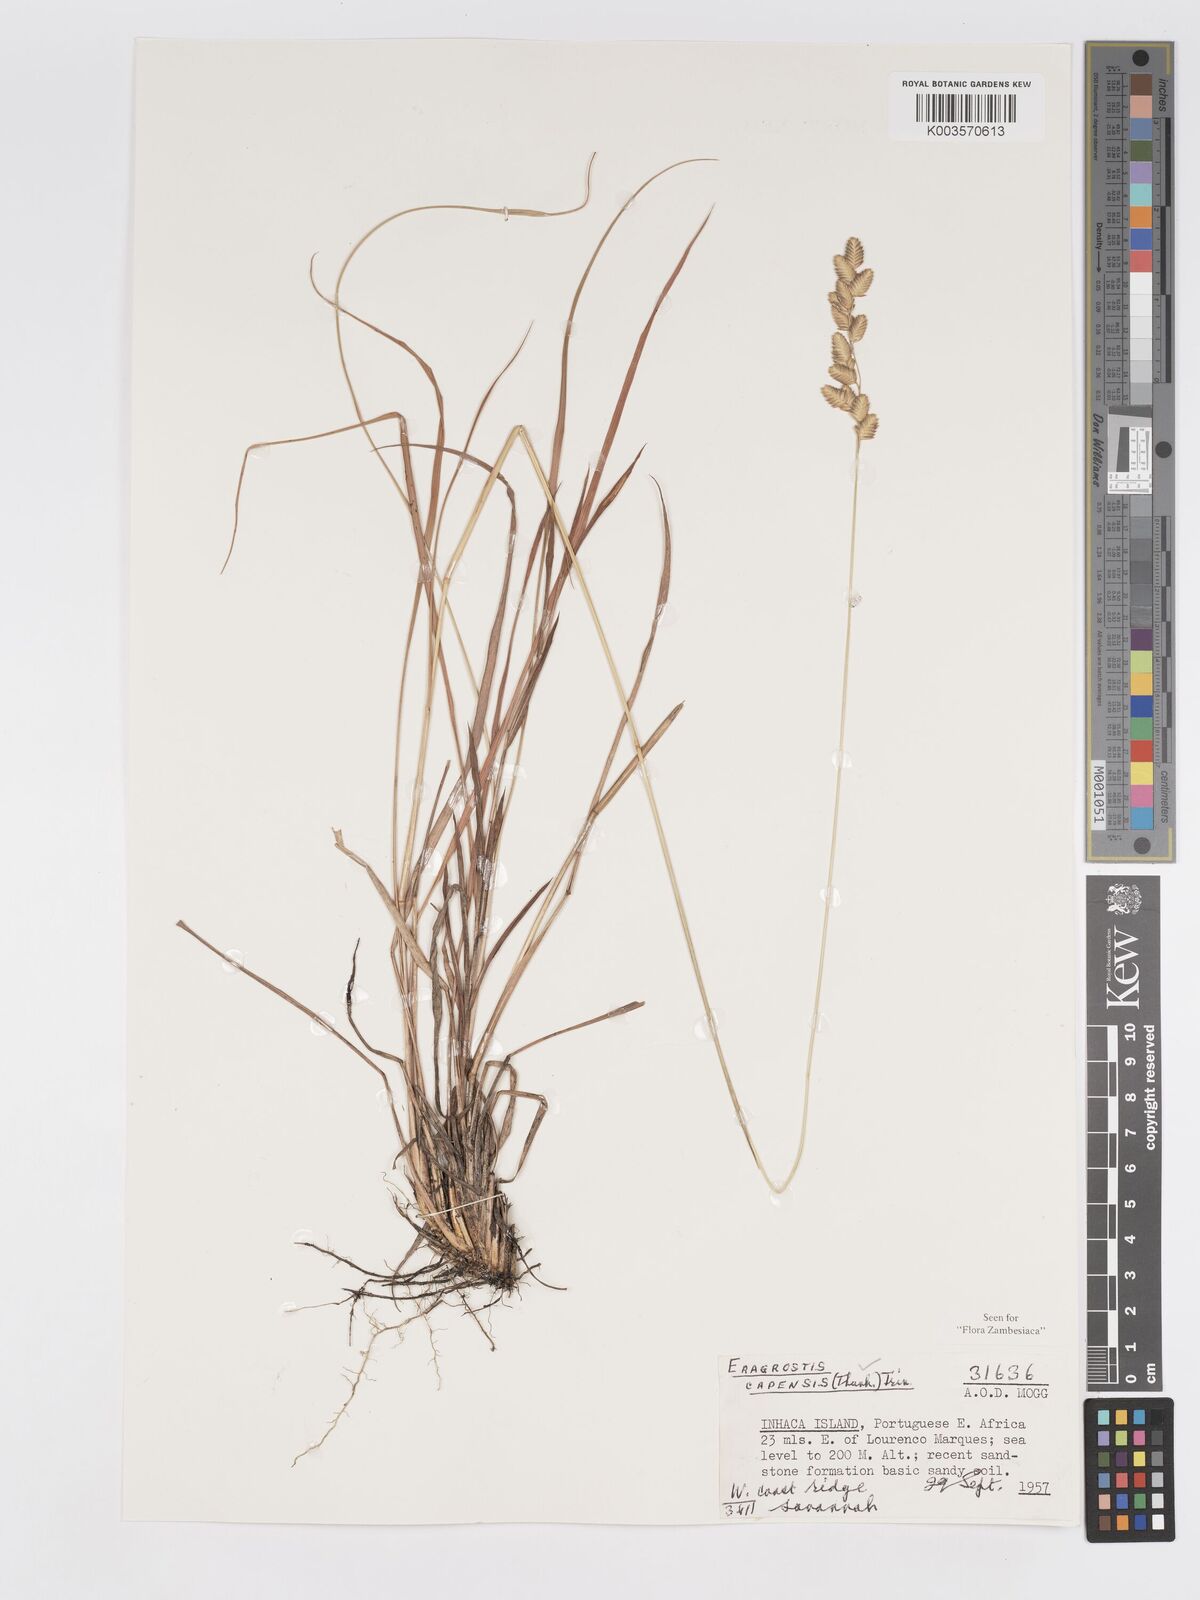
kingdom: Plantae
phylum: Tracheophyta
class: Liliopsida
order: Poales
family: Poaceae
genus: Eragrostis
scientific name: Eragrostis capensis
